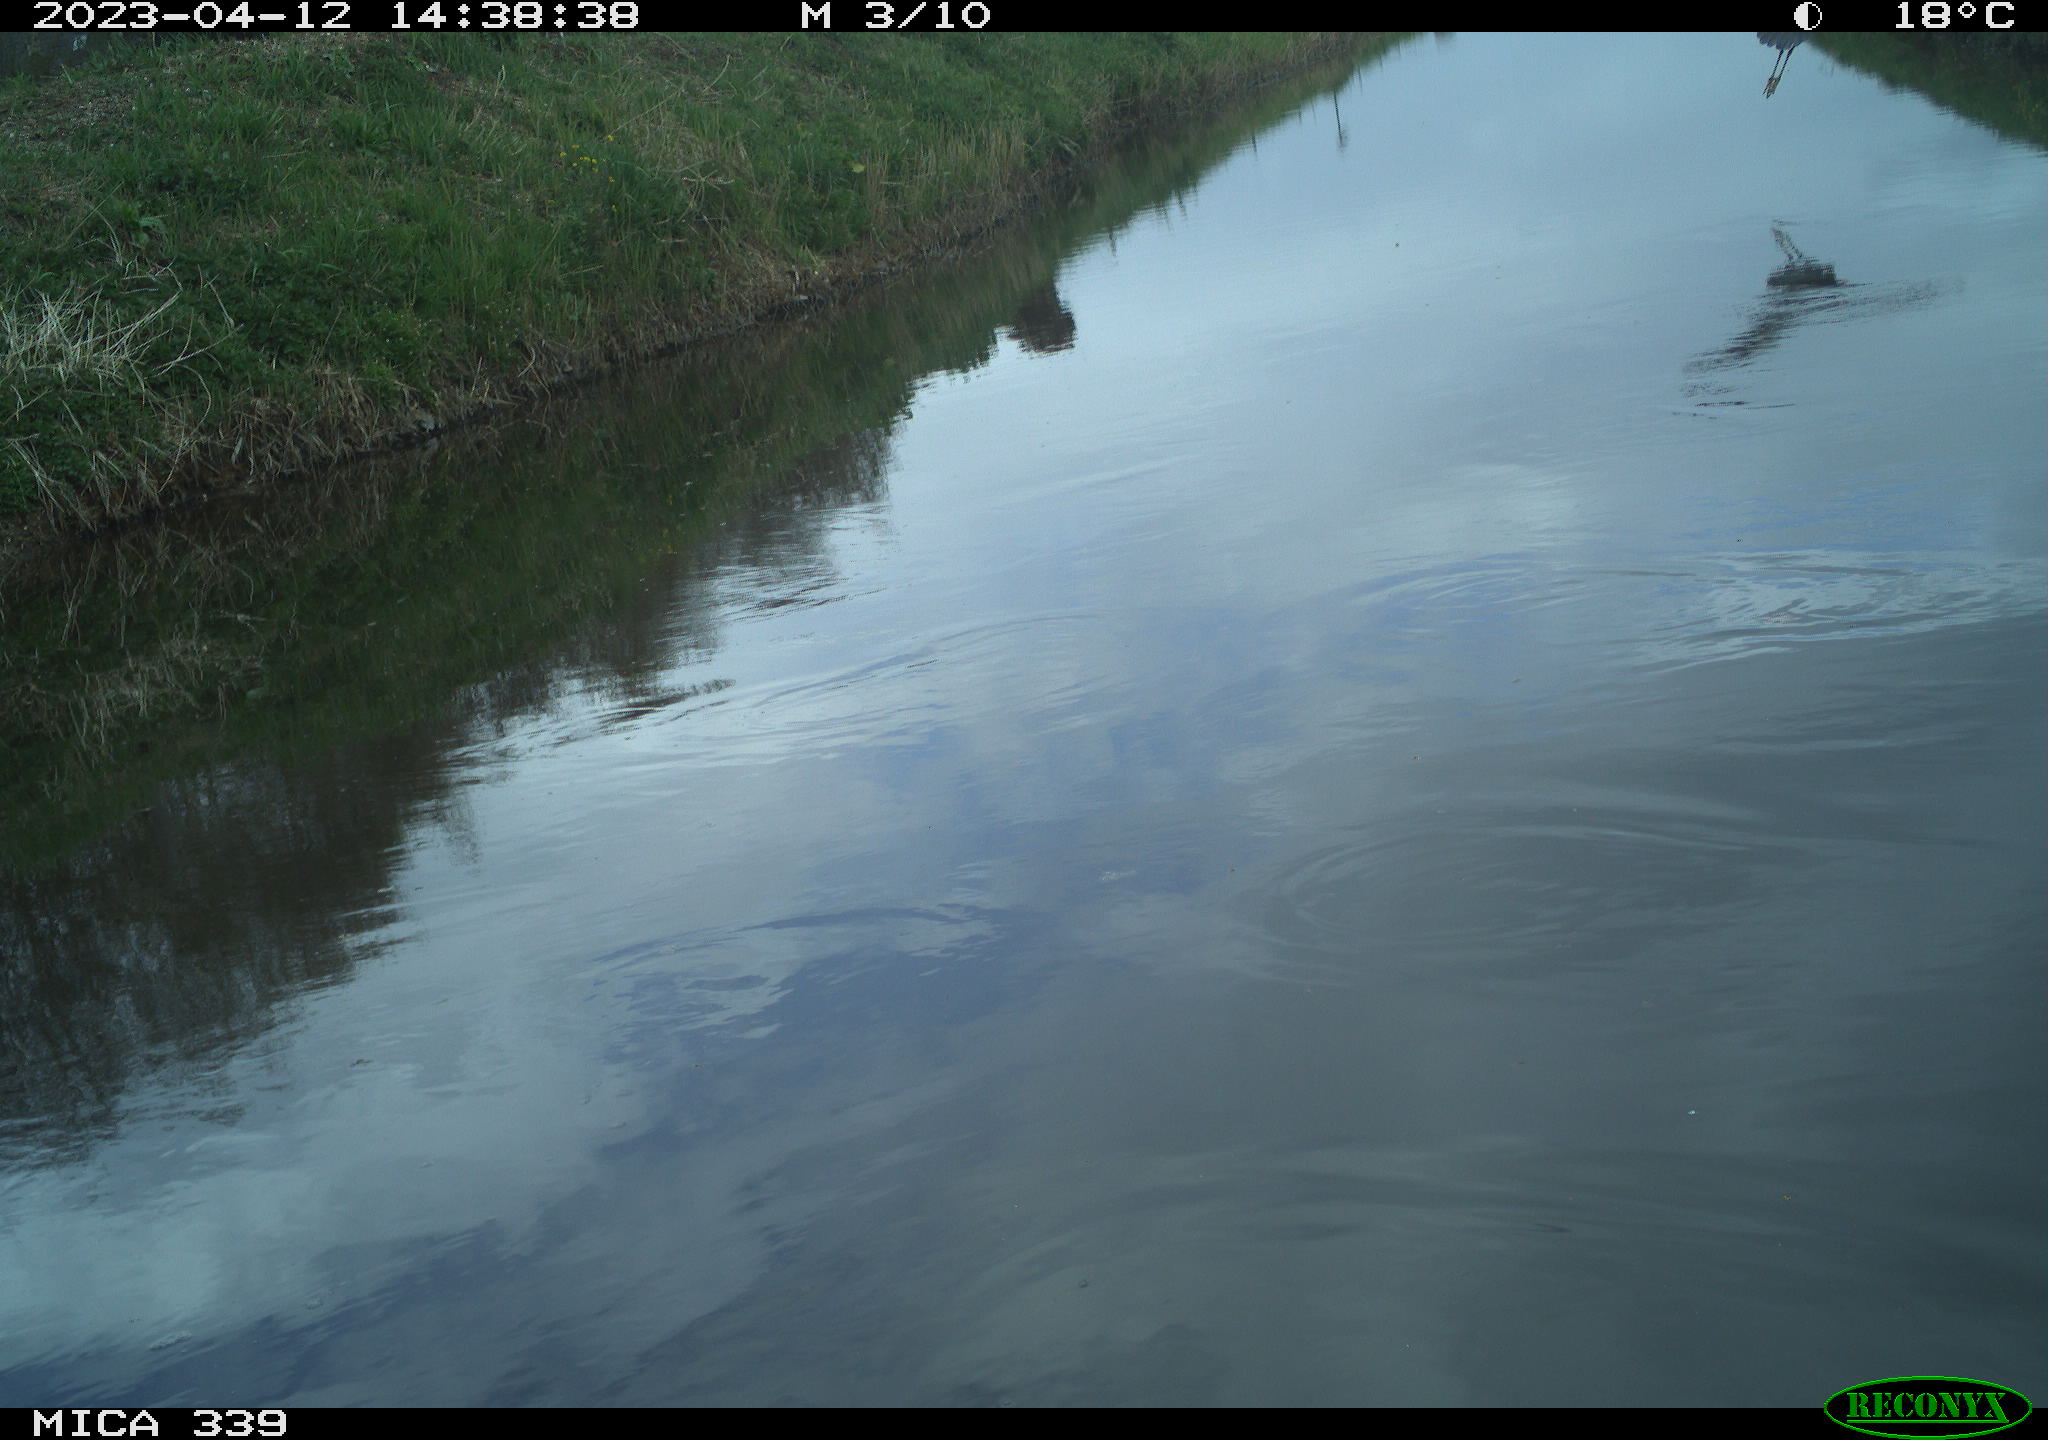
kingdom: Animalia
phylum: Chordata
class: Aves
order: Pelecaniformes
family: Ardeidae
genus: Ardea
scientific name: Ardea
